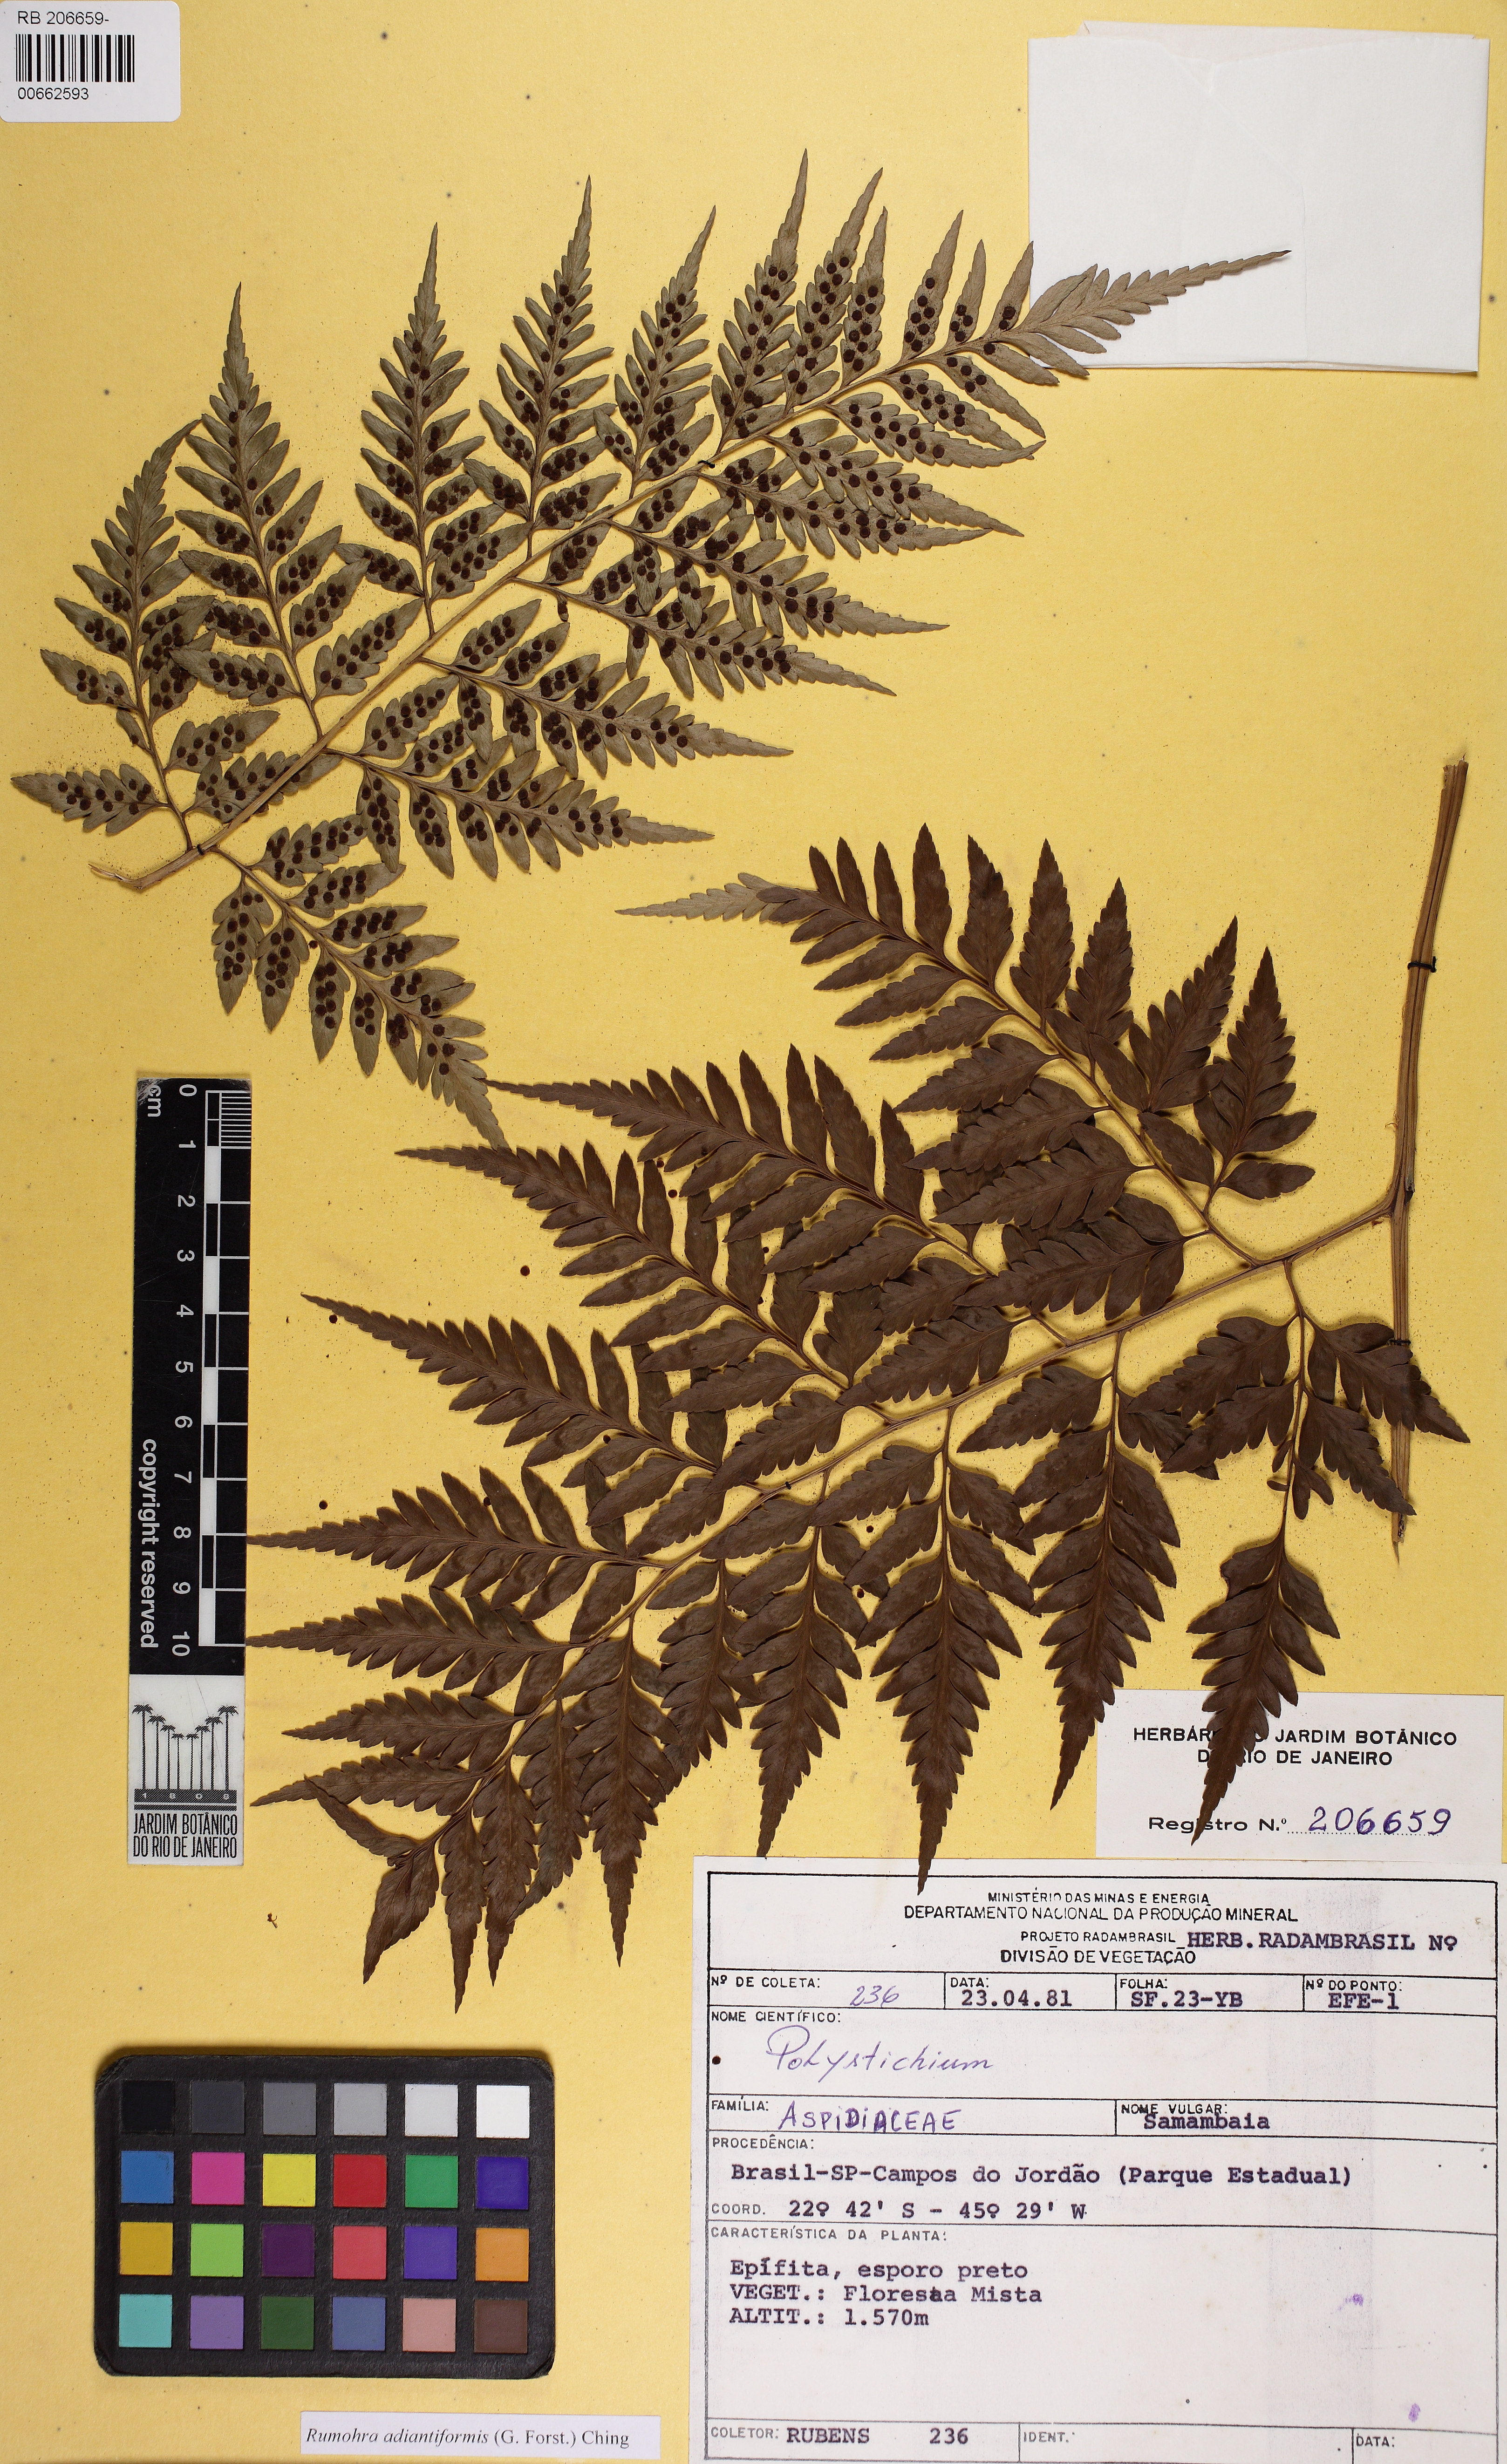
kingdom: Plantae
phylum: Tracheophyta
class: Polypodiopsida
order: Polypodiales
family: Dryopteridaceae
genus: Rumohra
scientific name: Rumohra adiantiformis
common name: Leather fern
